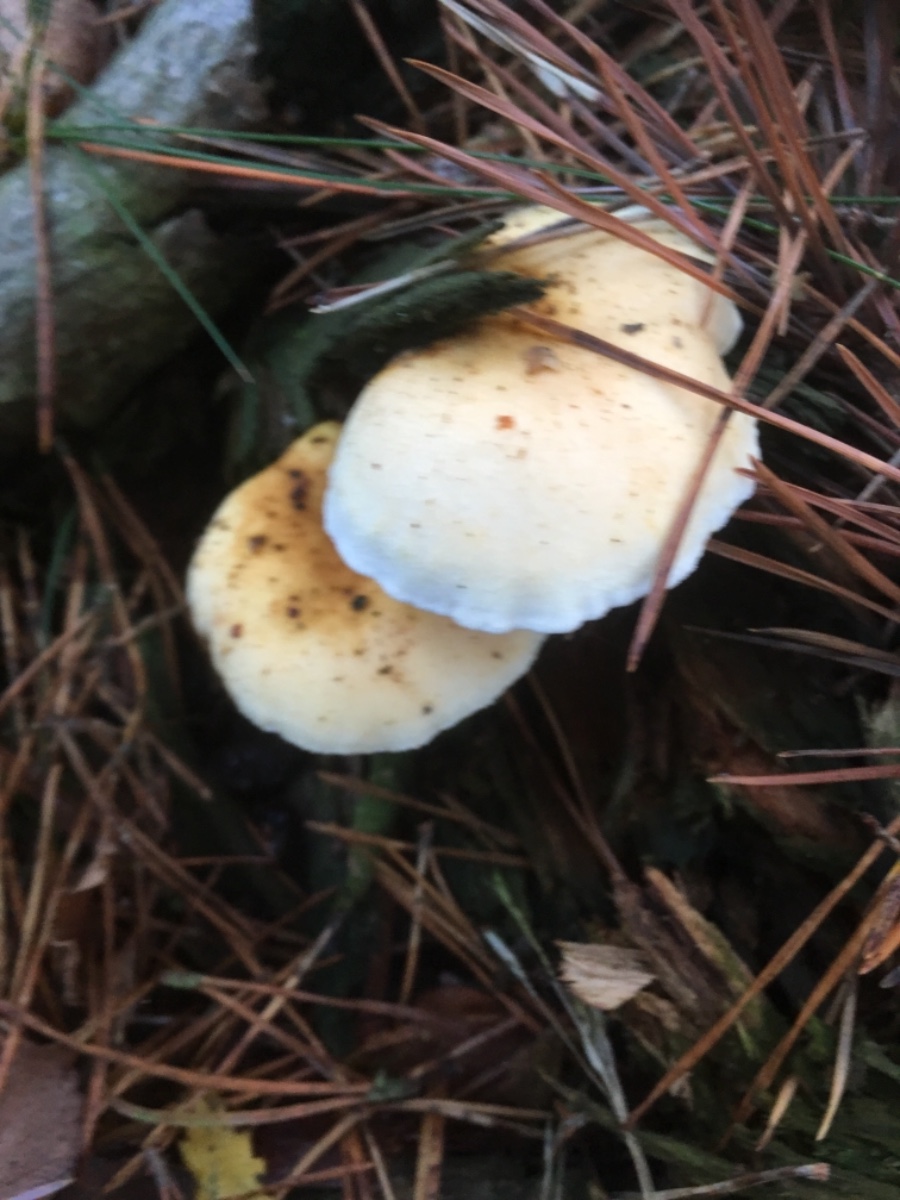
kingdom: Fungi
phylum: Basidiomycota
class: Agaricomycetes
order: Boletales
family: Hygrophoropsidaceae
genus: Hygrophoropsis
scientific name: Hygrophoropsis aurantiaca
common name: almindelig orangekantarel
